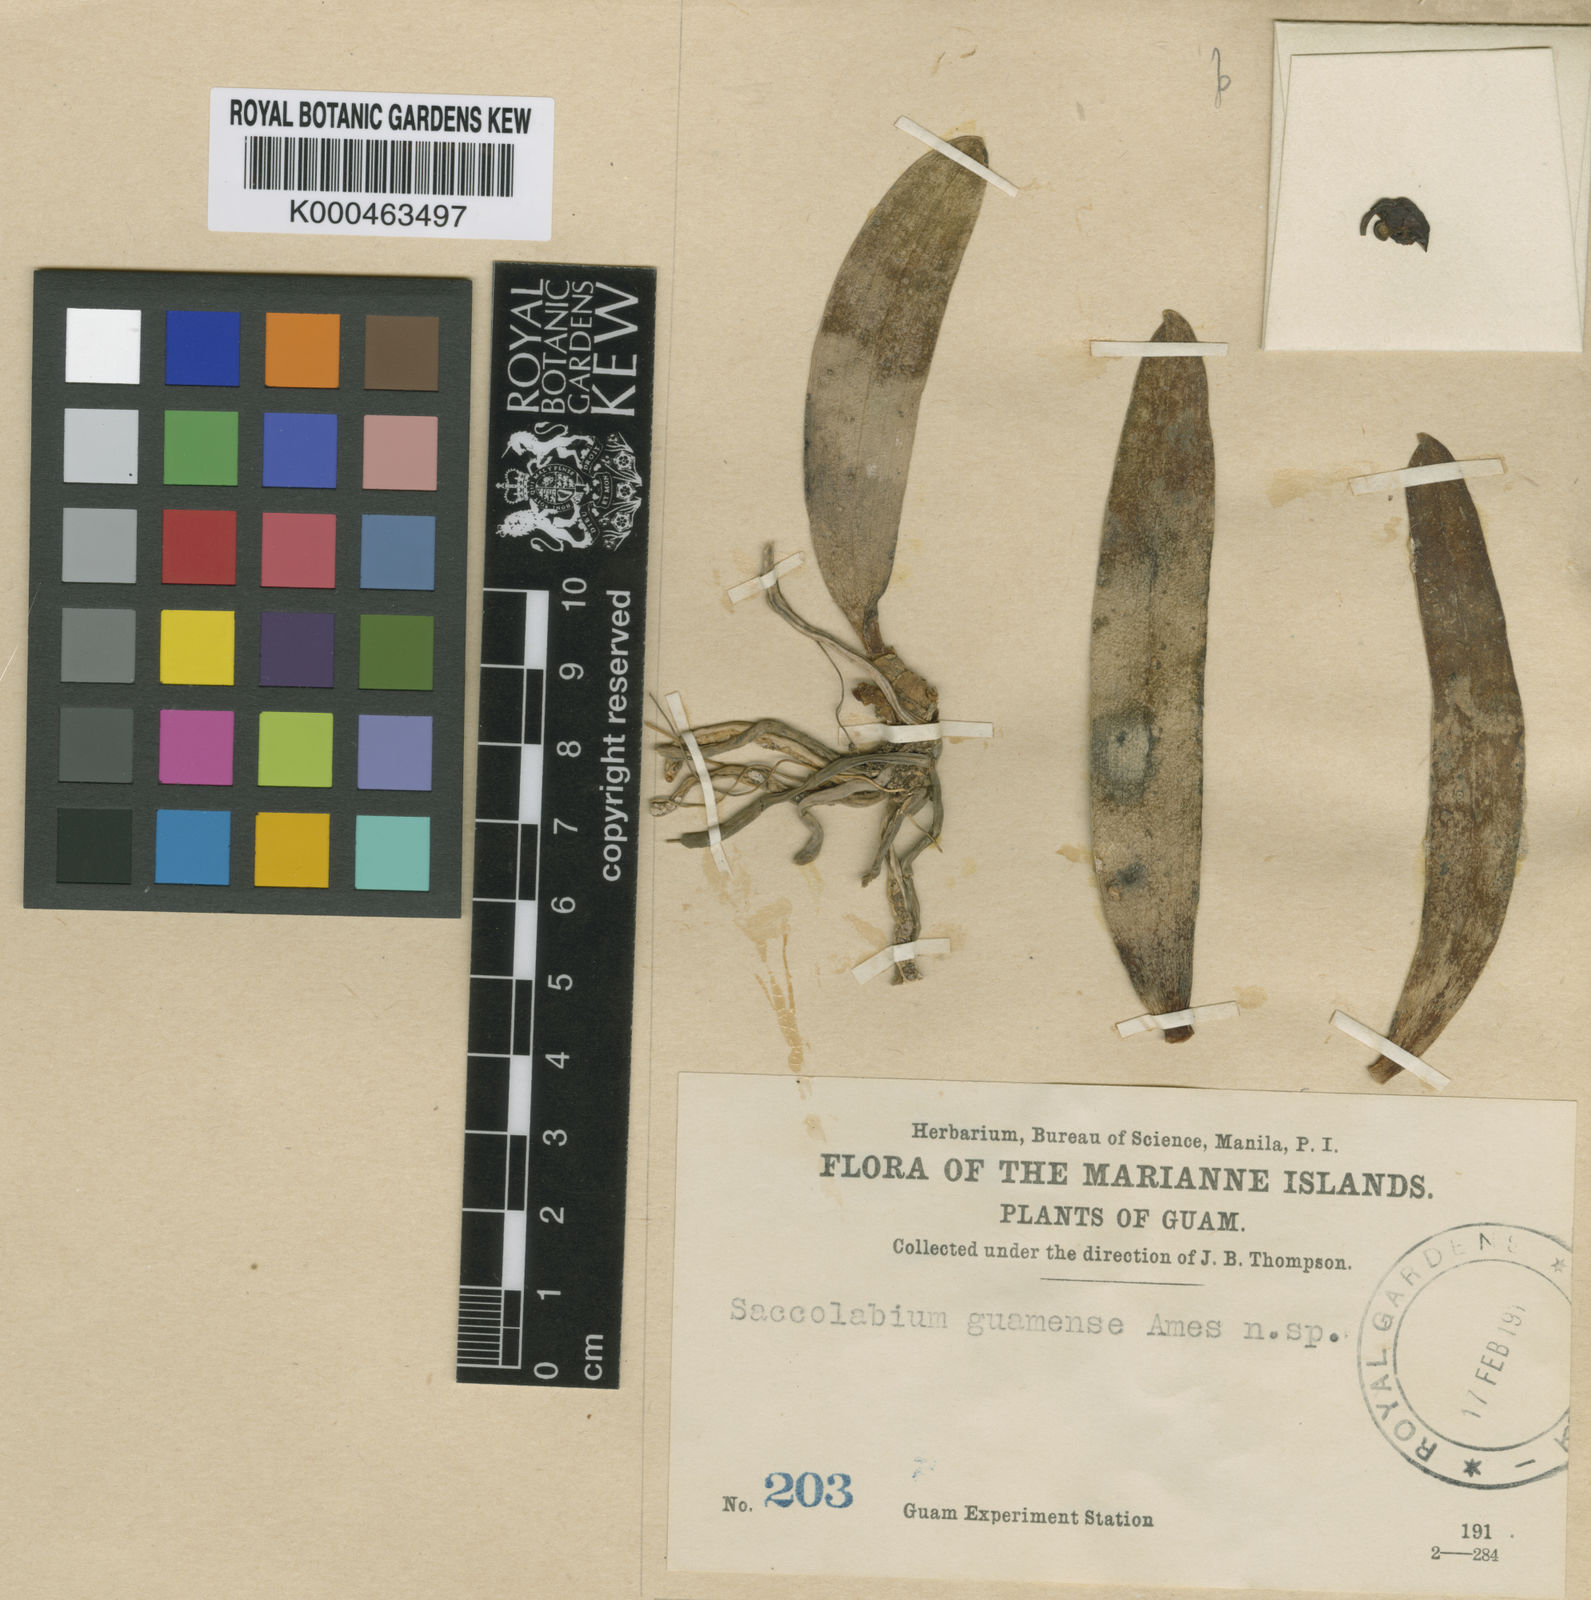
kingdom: Plantae
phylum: Tracheophyta
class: Liliopsida
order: Asparagales
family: Orchidaceae
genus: Trachoma
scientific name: Trachoma guamense
